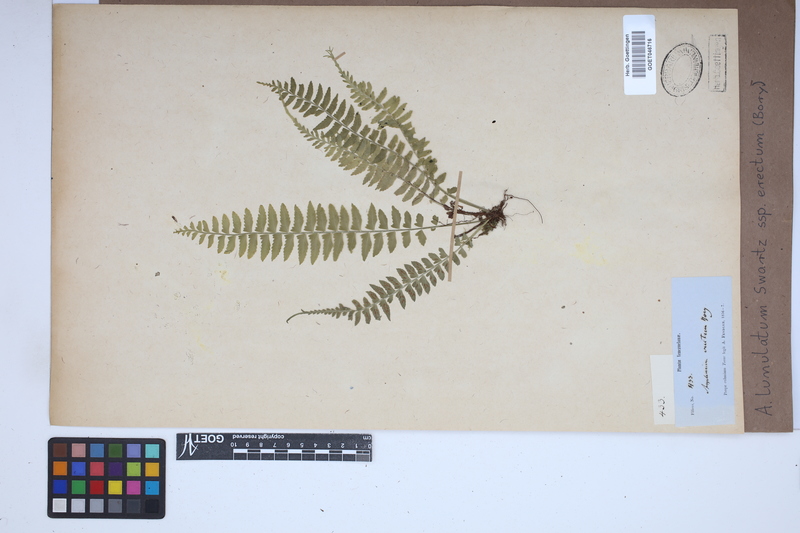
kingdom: Plantae
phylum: Tracheophyta
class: Polypodiopsida
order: Polypodiales
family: Aspleniaceae
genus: Asplenium
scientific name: Asplenium erectum
